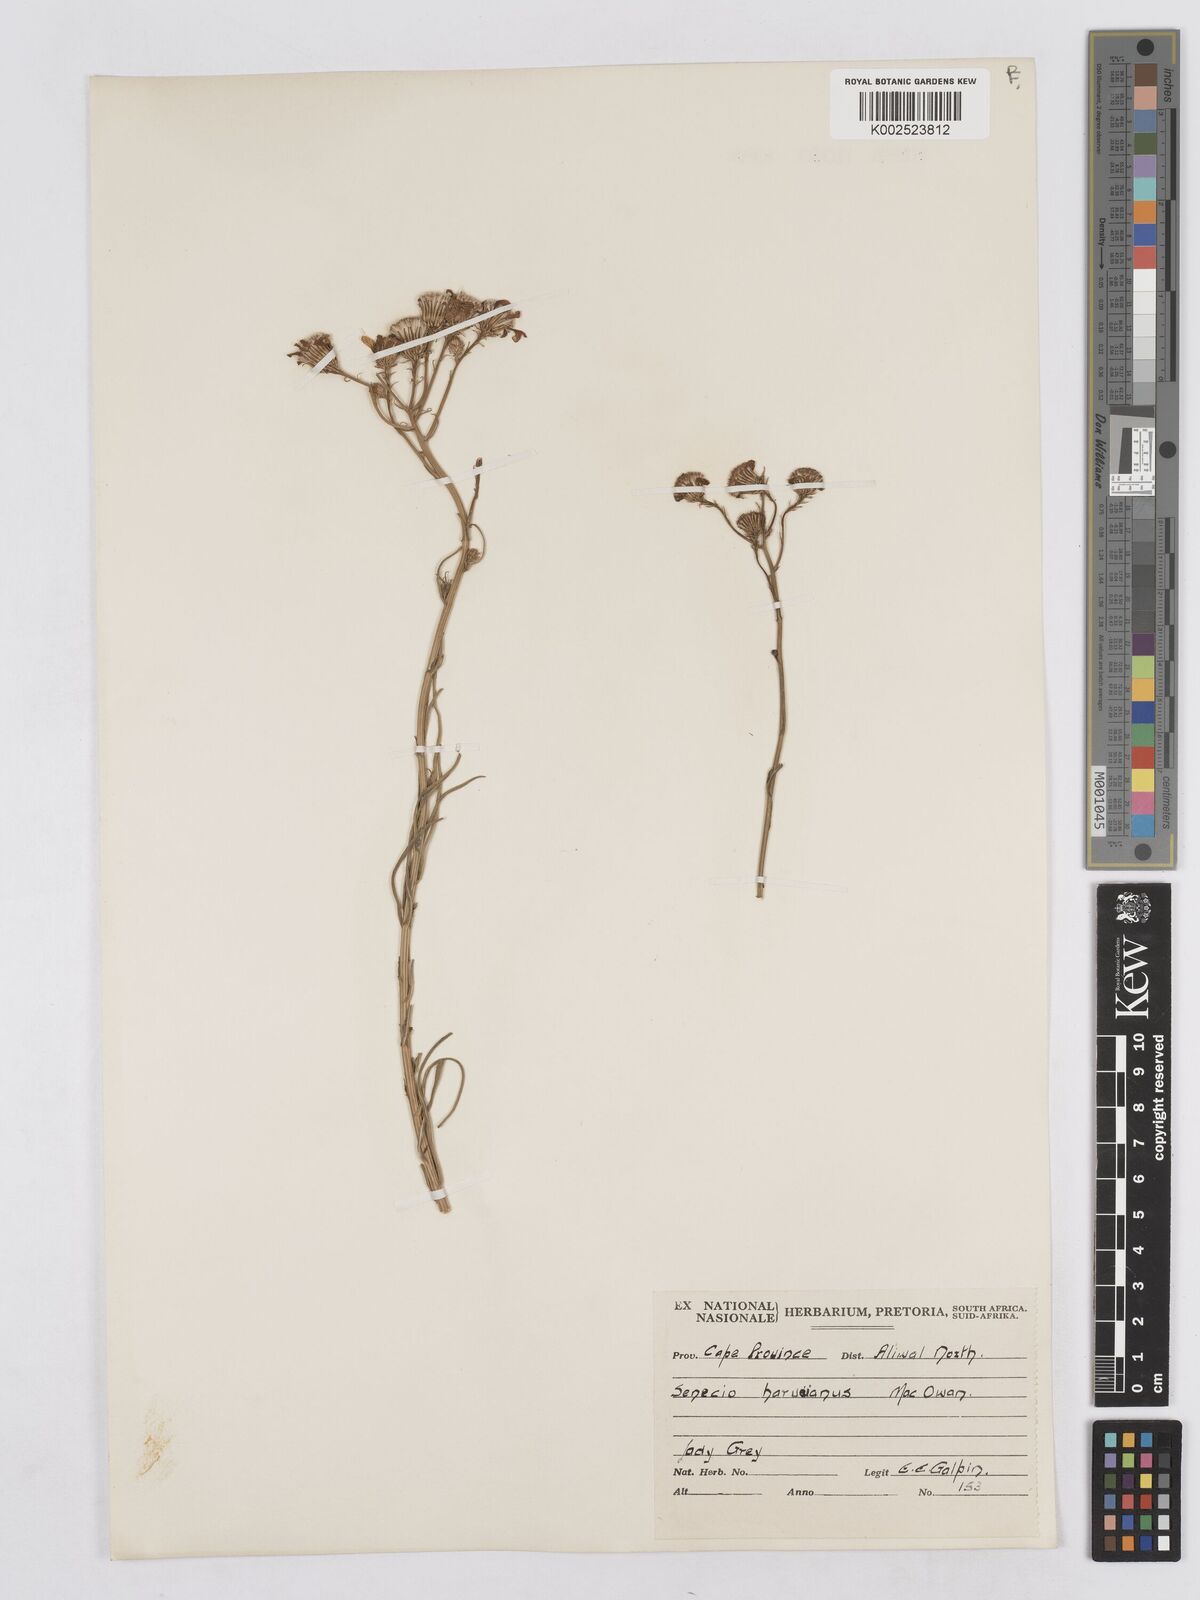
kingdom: Plantae
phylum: Tracheophyta
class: Magnoliopsida
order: Asterales
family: Asteraceae
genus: Senecio
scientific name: Senecio harveyanus
